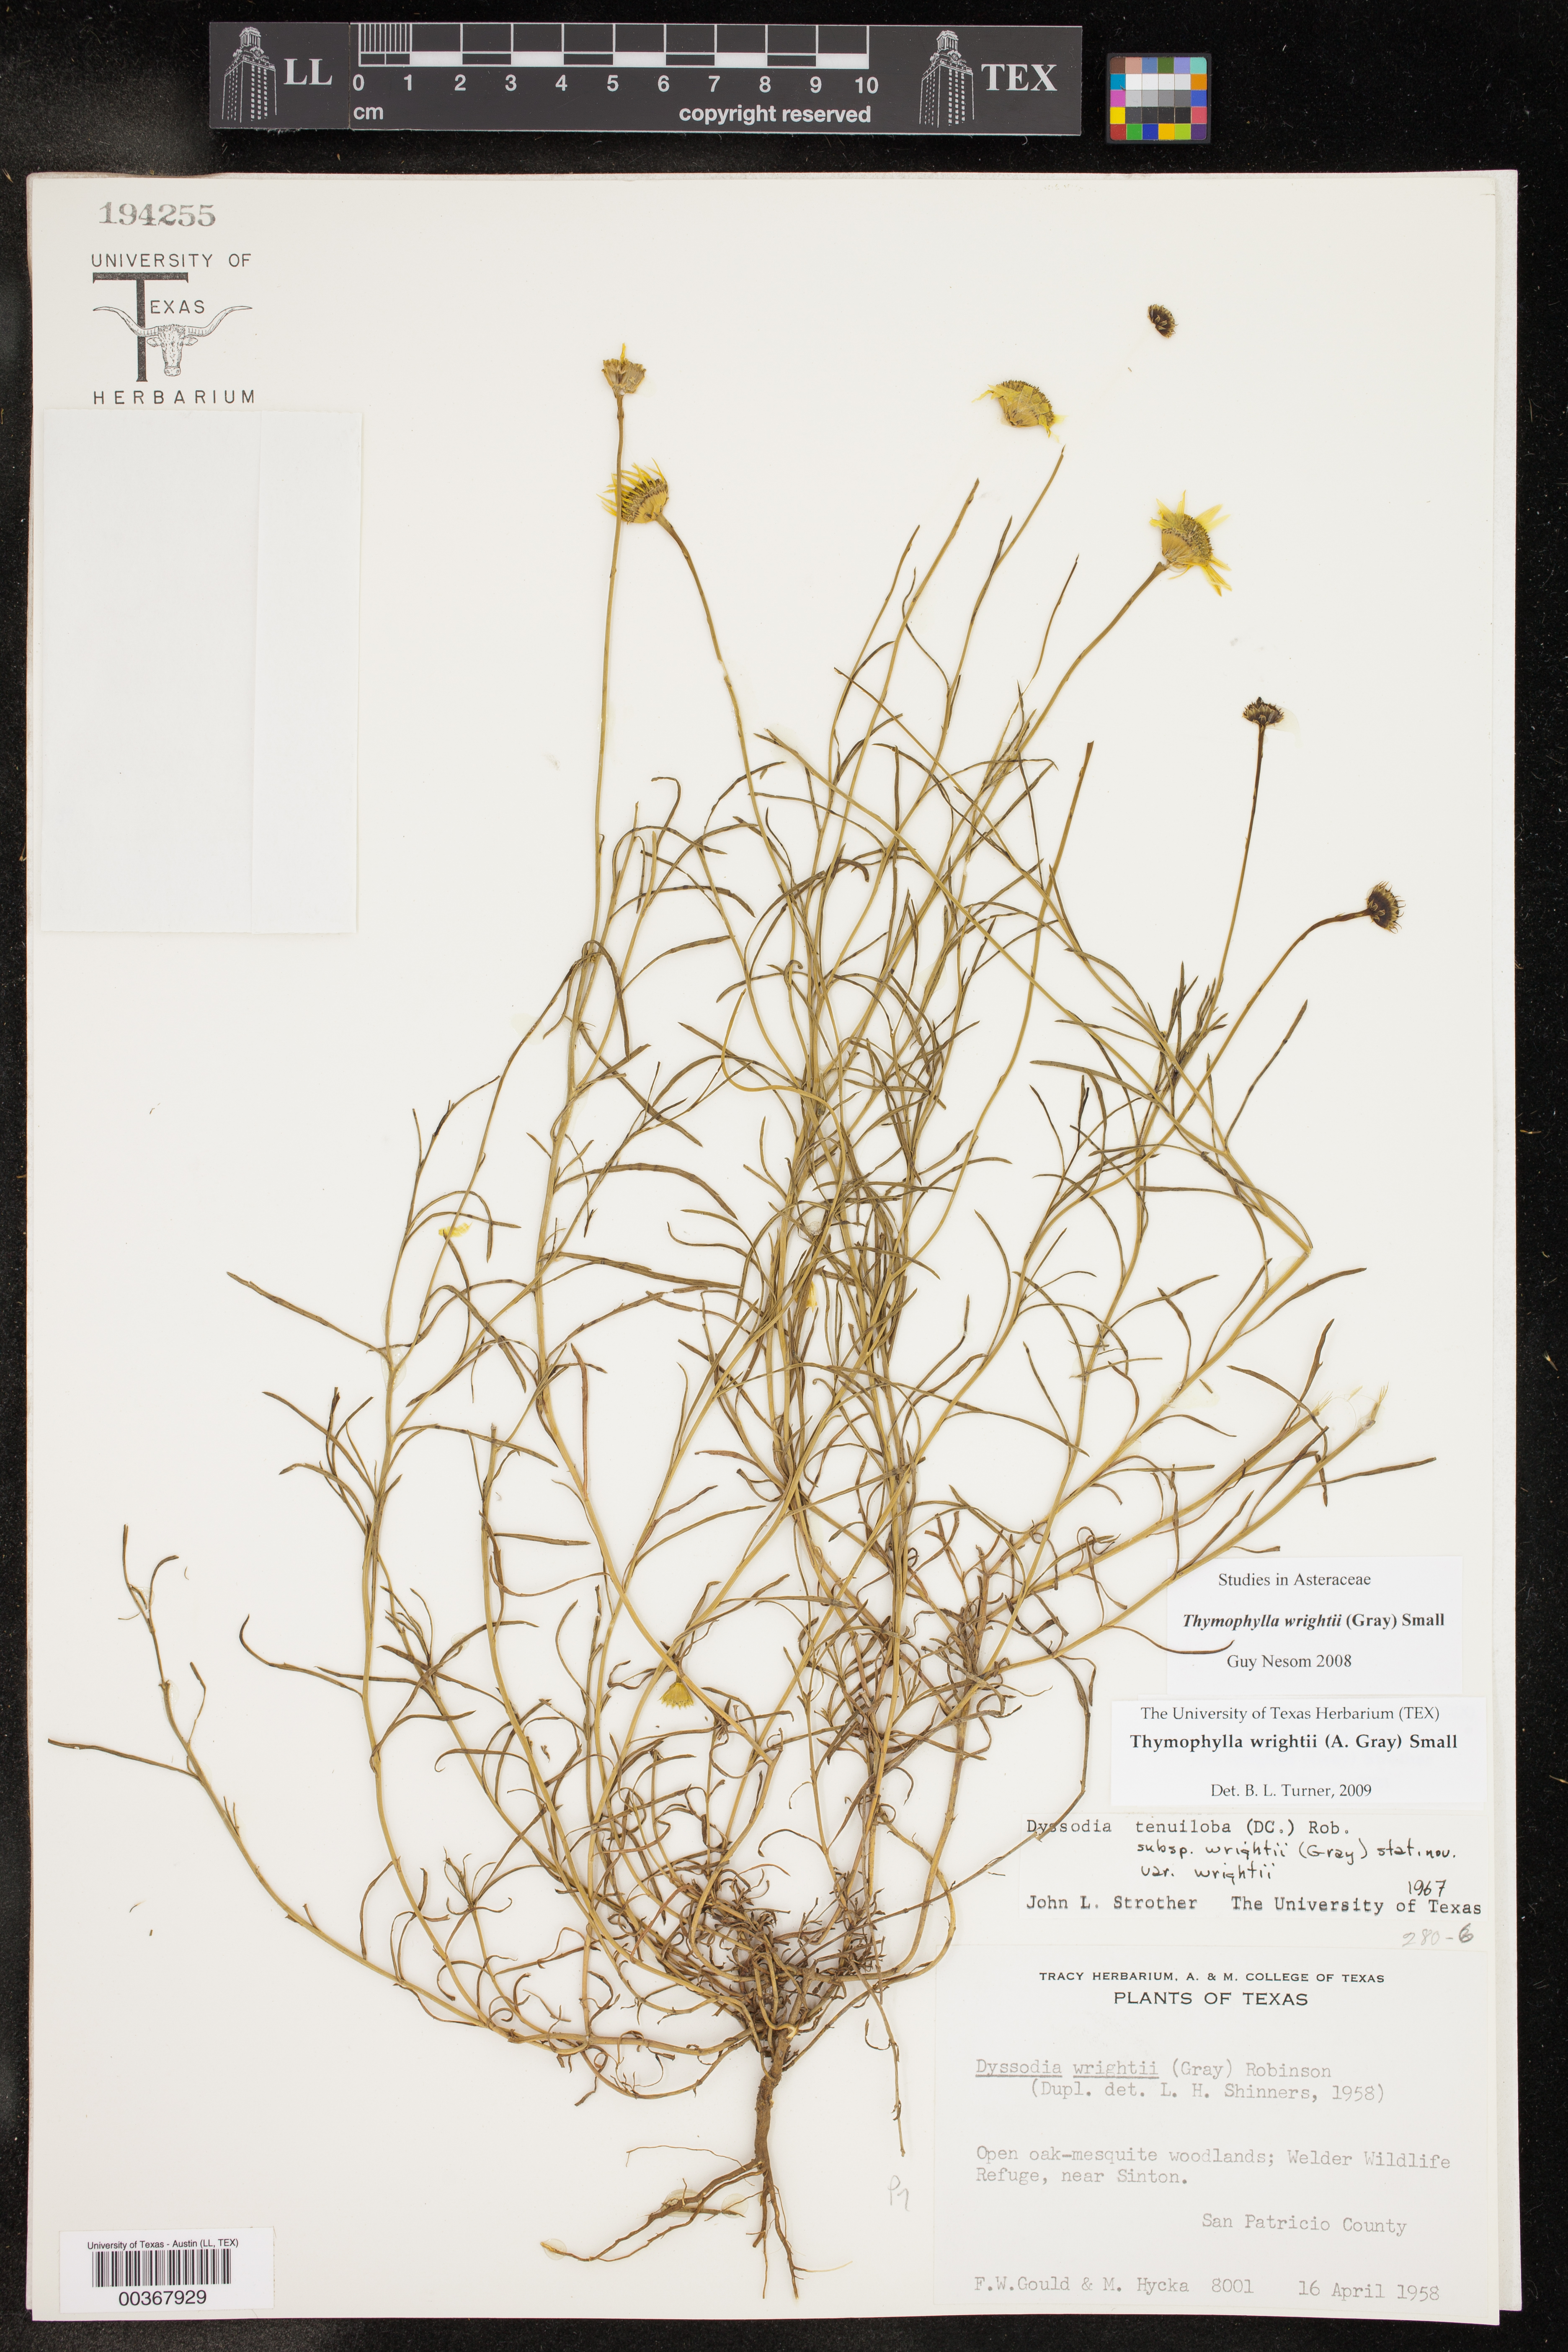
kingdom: Plantae
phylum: Tracheophyta
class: Magnoliopsida
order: Asterales
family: Asteraceae
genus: Thymophylla
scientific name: Thymophylla tenuiloba
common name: Dahlberg's daisy
